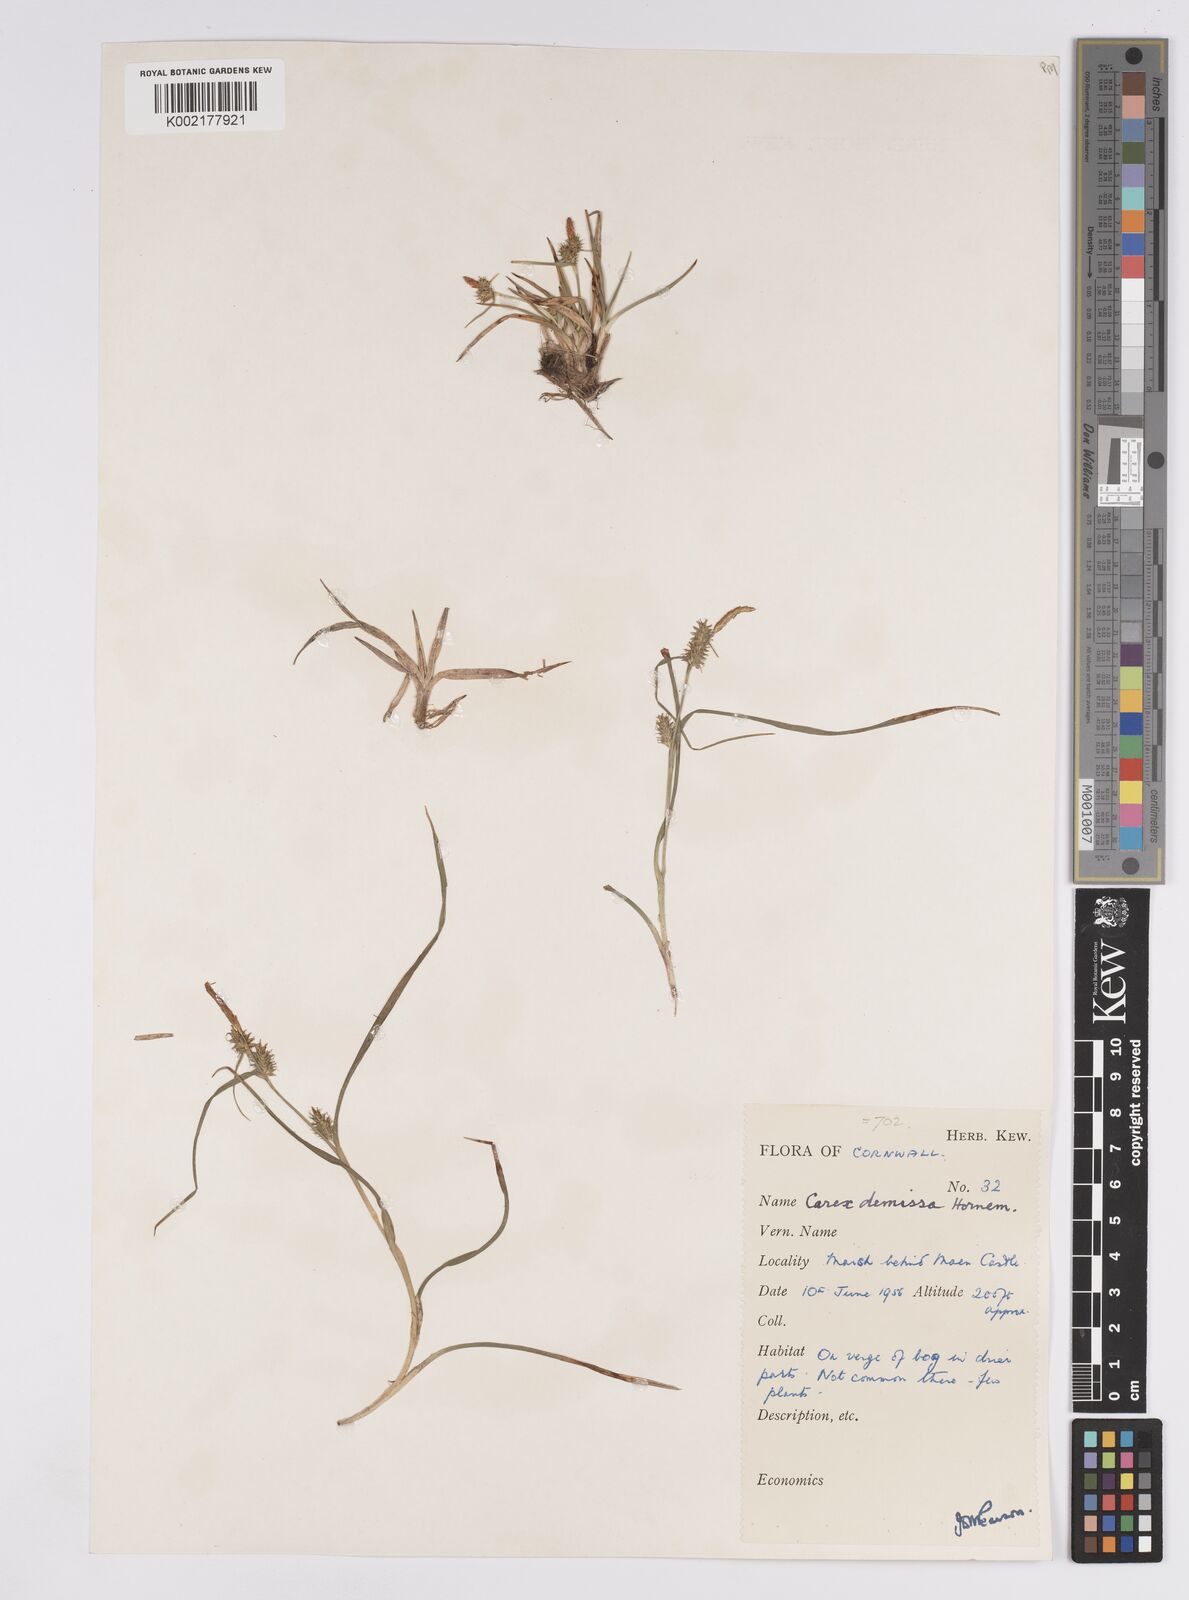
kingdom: Plantae
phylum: Tracheophyta
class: Liliopsida
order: Poales
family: Cyperaceae
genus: Carex
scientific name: Carex demissa
